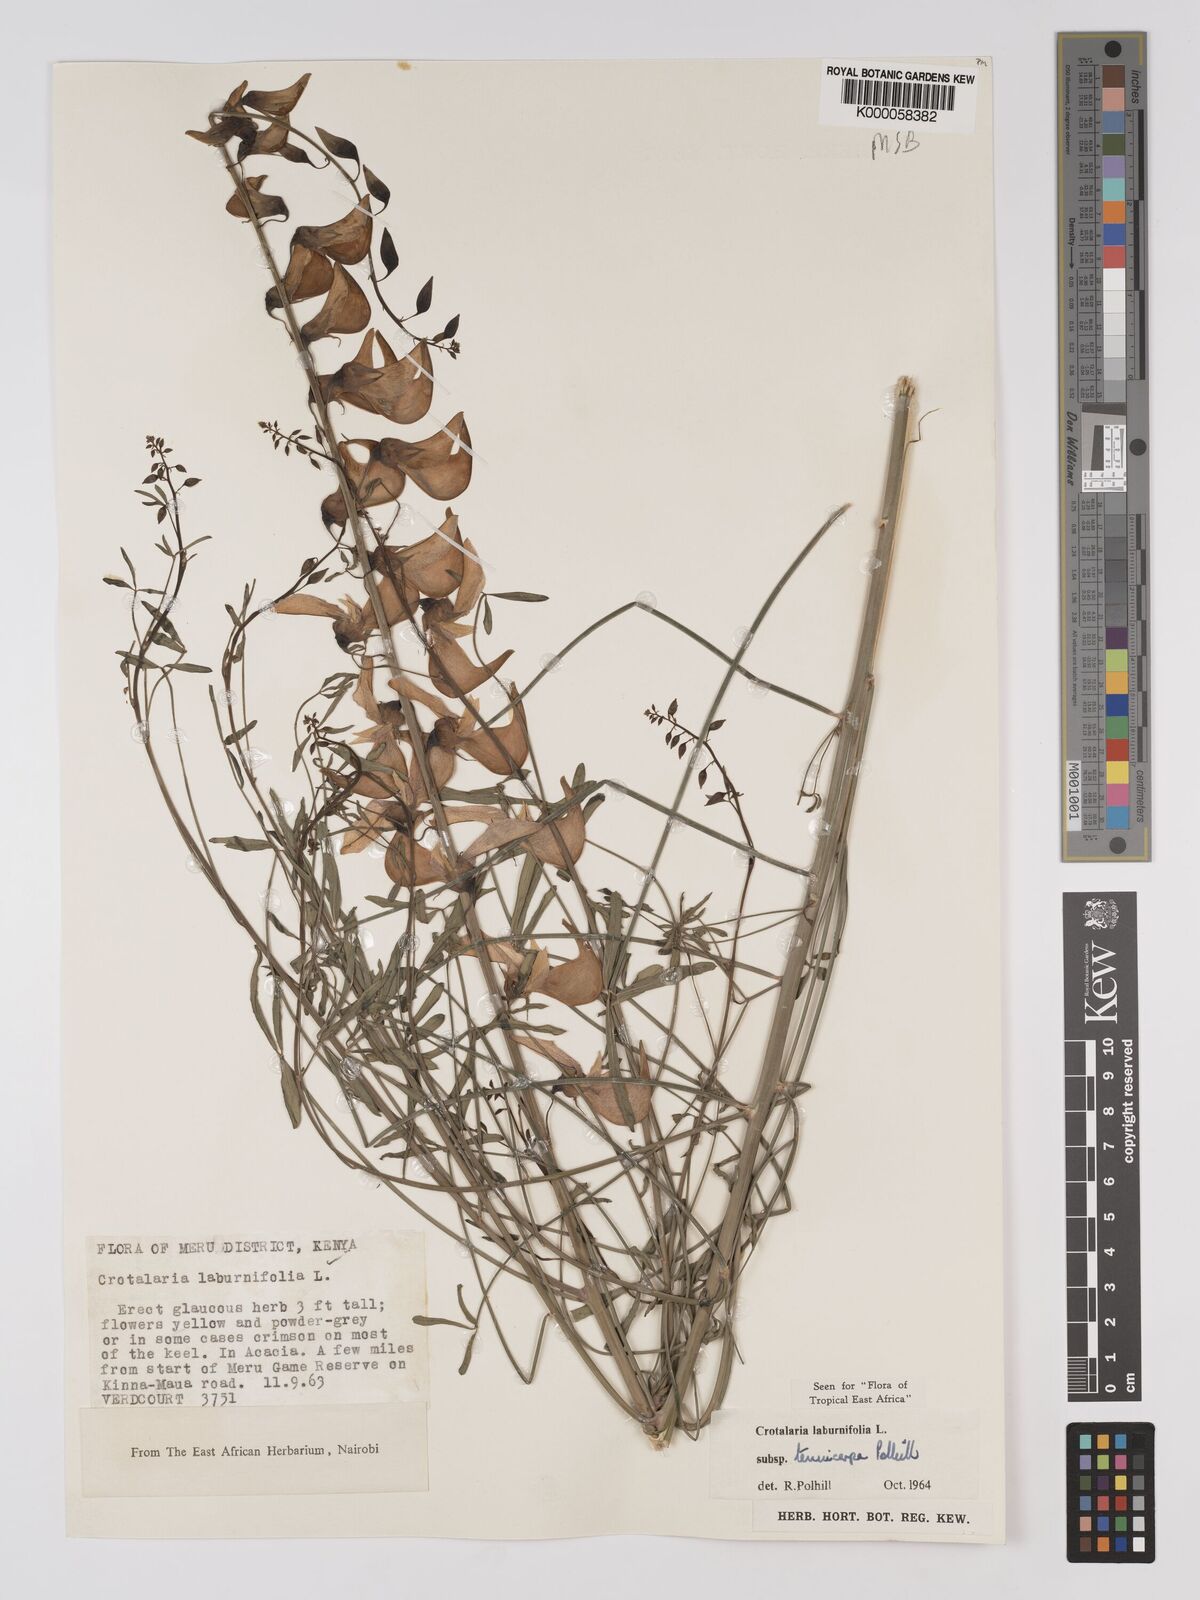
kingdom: Plantae
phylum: Tracheophyta
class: Magnoliopsida
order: Fabales
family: Fabaceae
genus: Crotalaria
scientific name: Crotalaria pseudospartium
